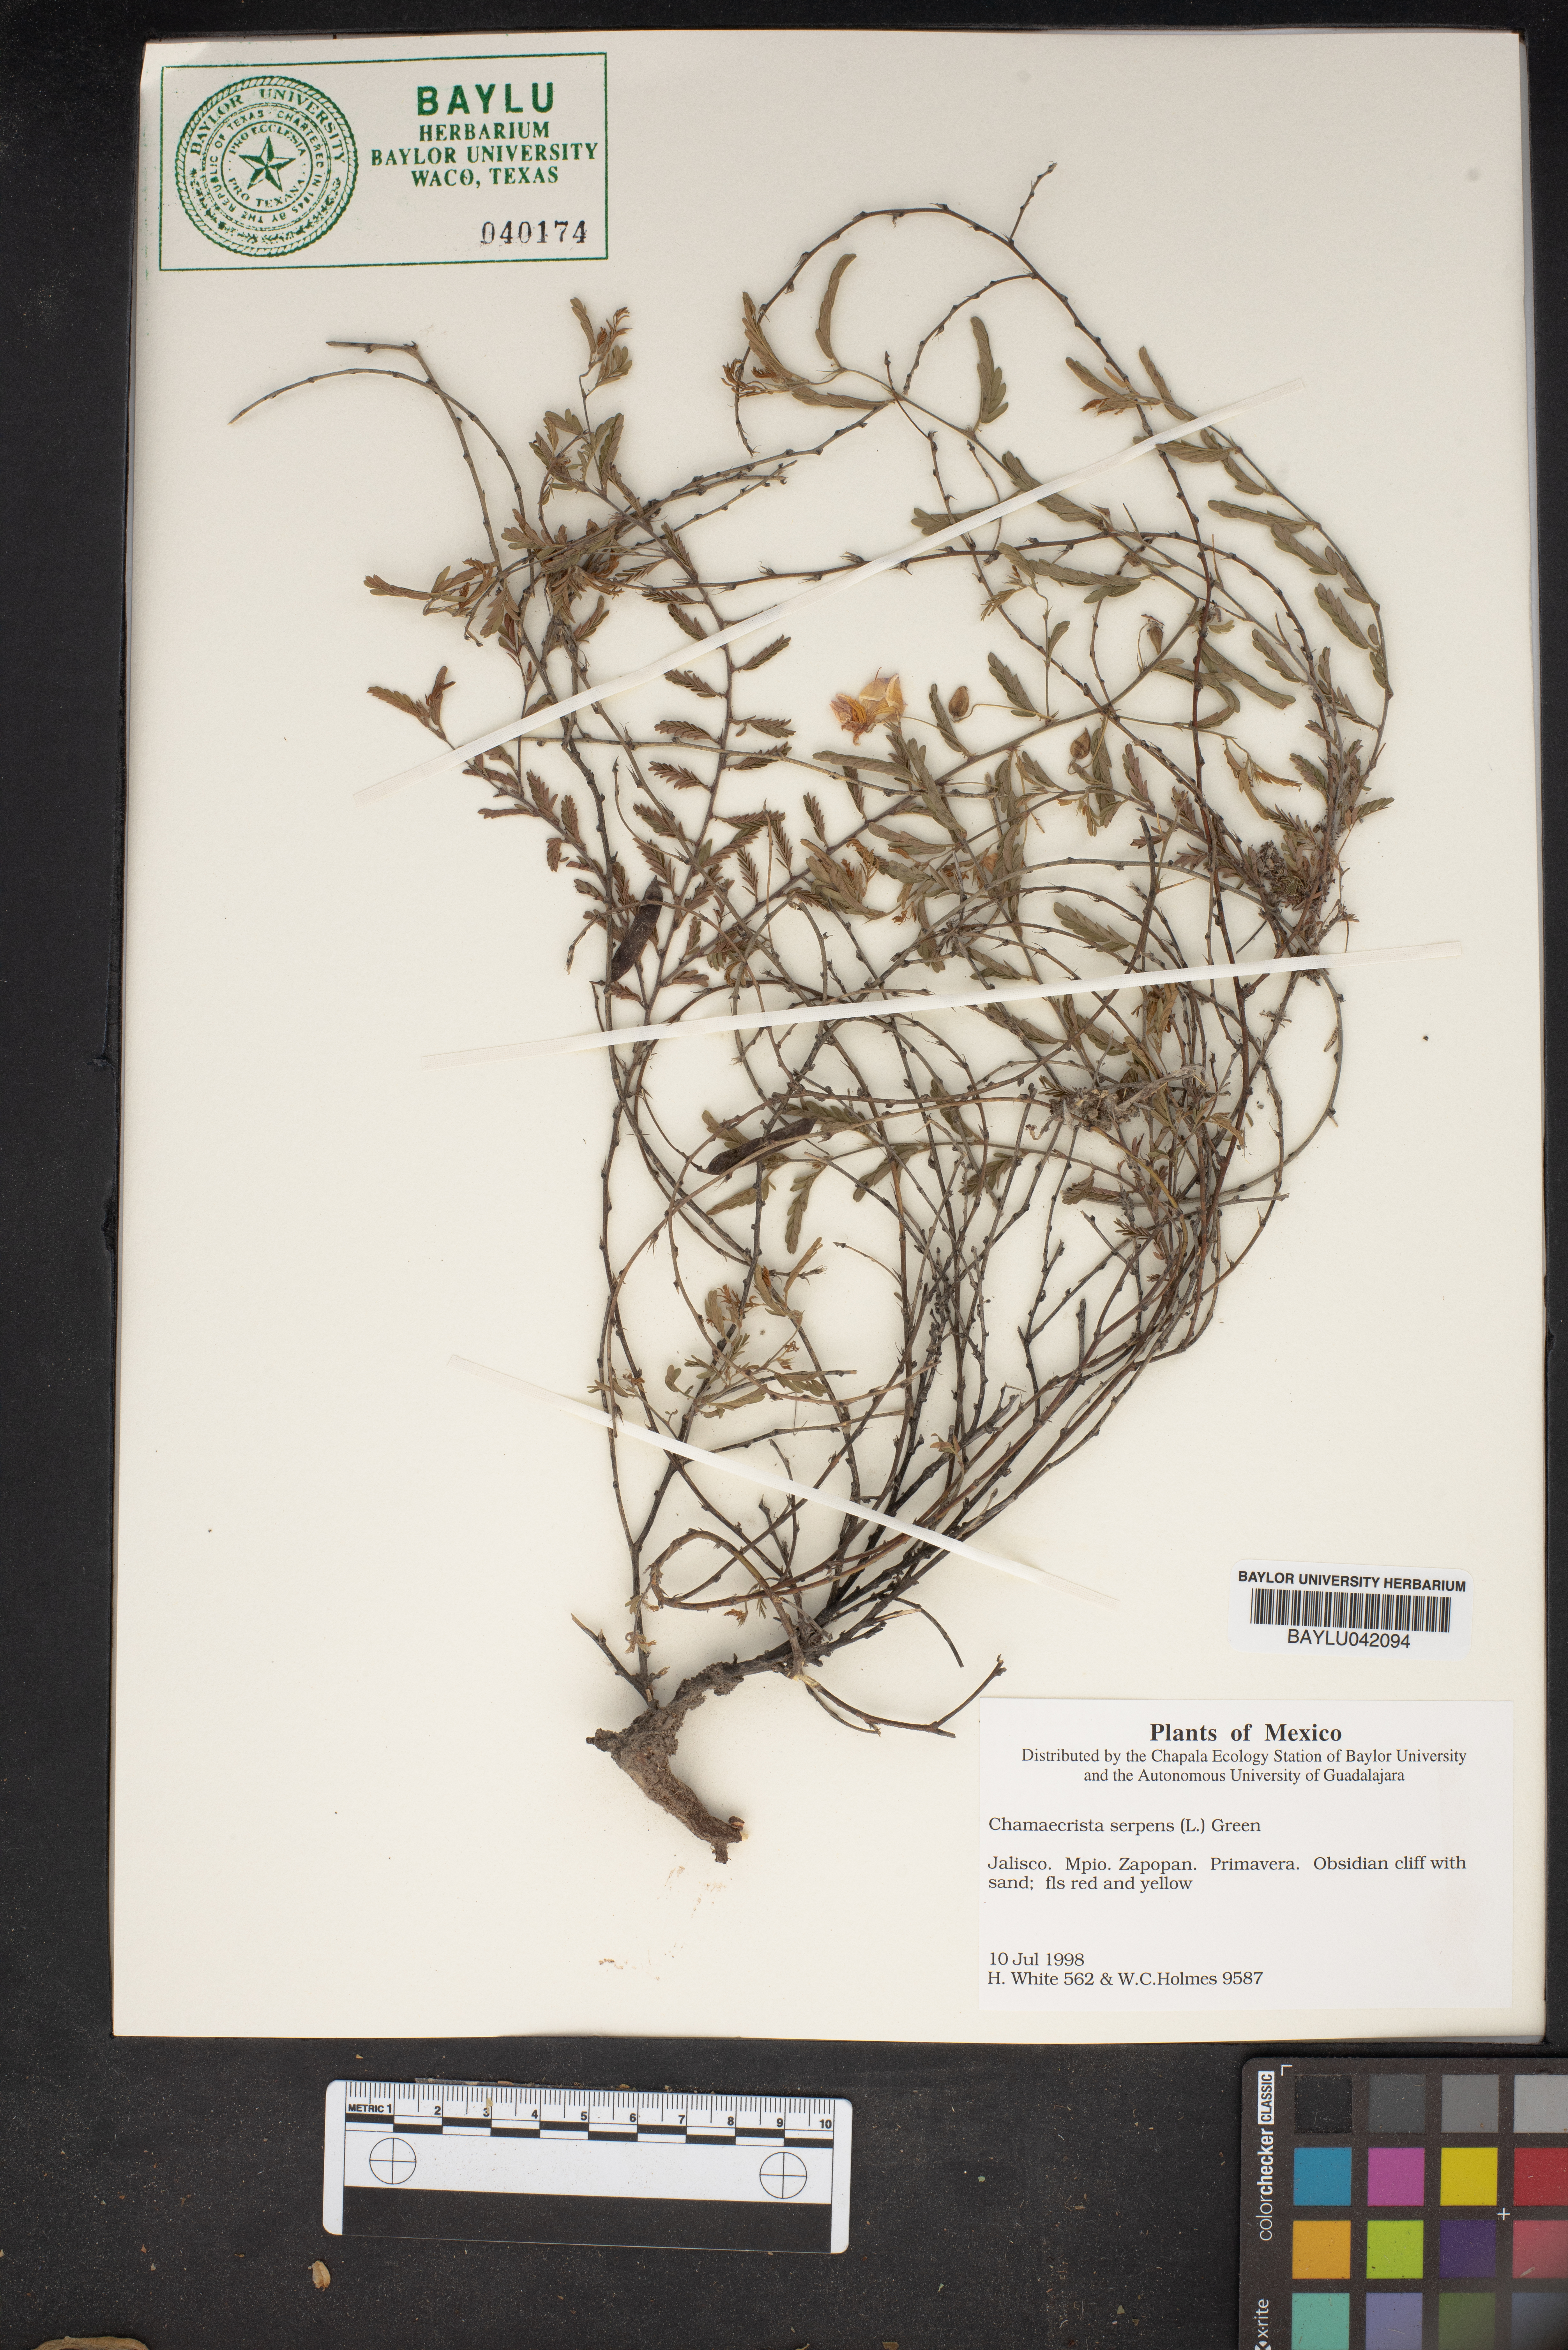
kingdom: Plantae
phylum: Tracheophyta
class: Magnoliopsida
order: Fabales
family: Fabaceae
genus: Chamaecrista
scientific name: Chamaecrista serpens
